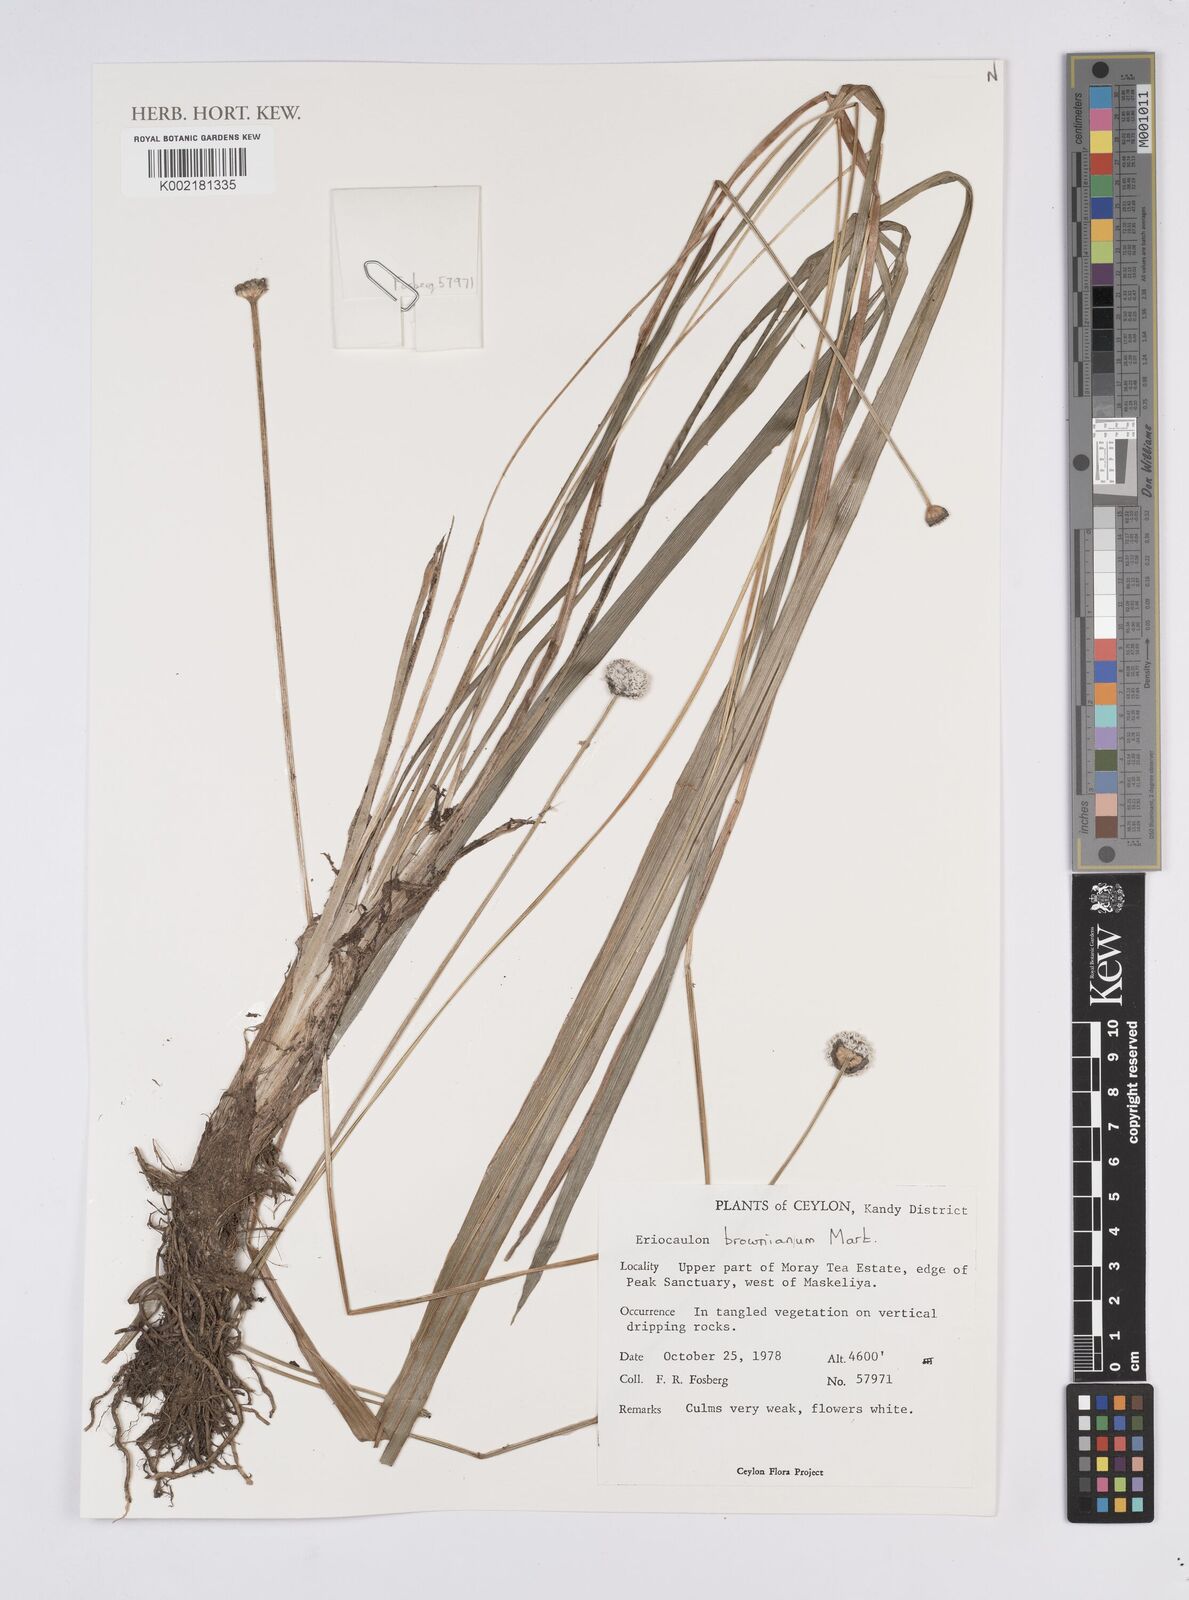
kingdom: Plantae
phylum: Tracheophyta
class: Liliopsida
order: Poales
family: Eriocaulaceae
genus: Eriocaulon
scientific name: Eriocaulon brownianum
